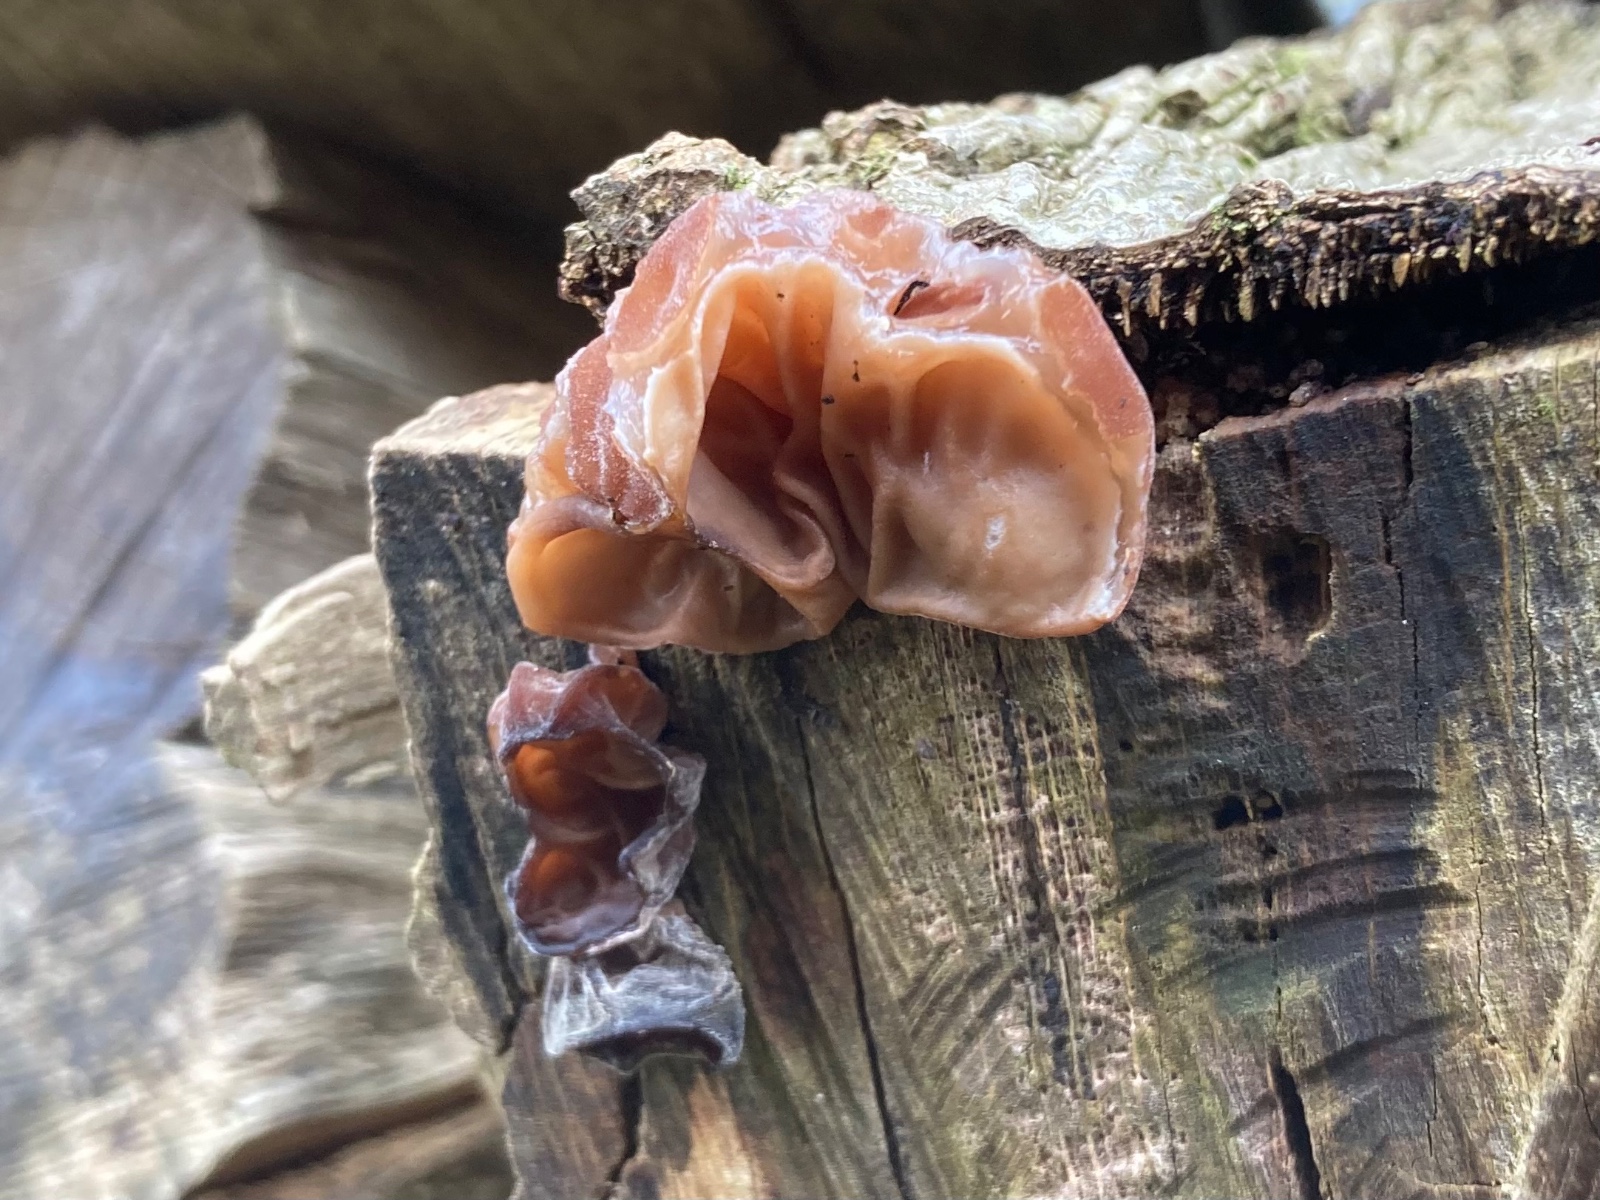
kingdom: Fungi
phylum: Basidiomycota
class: Agaricomycetes
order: Auriculariales
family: Auriculariaceae
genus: Auricularia
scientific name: Auricularia auricula-judae
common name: almindelig judasøre
